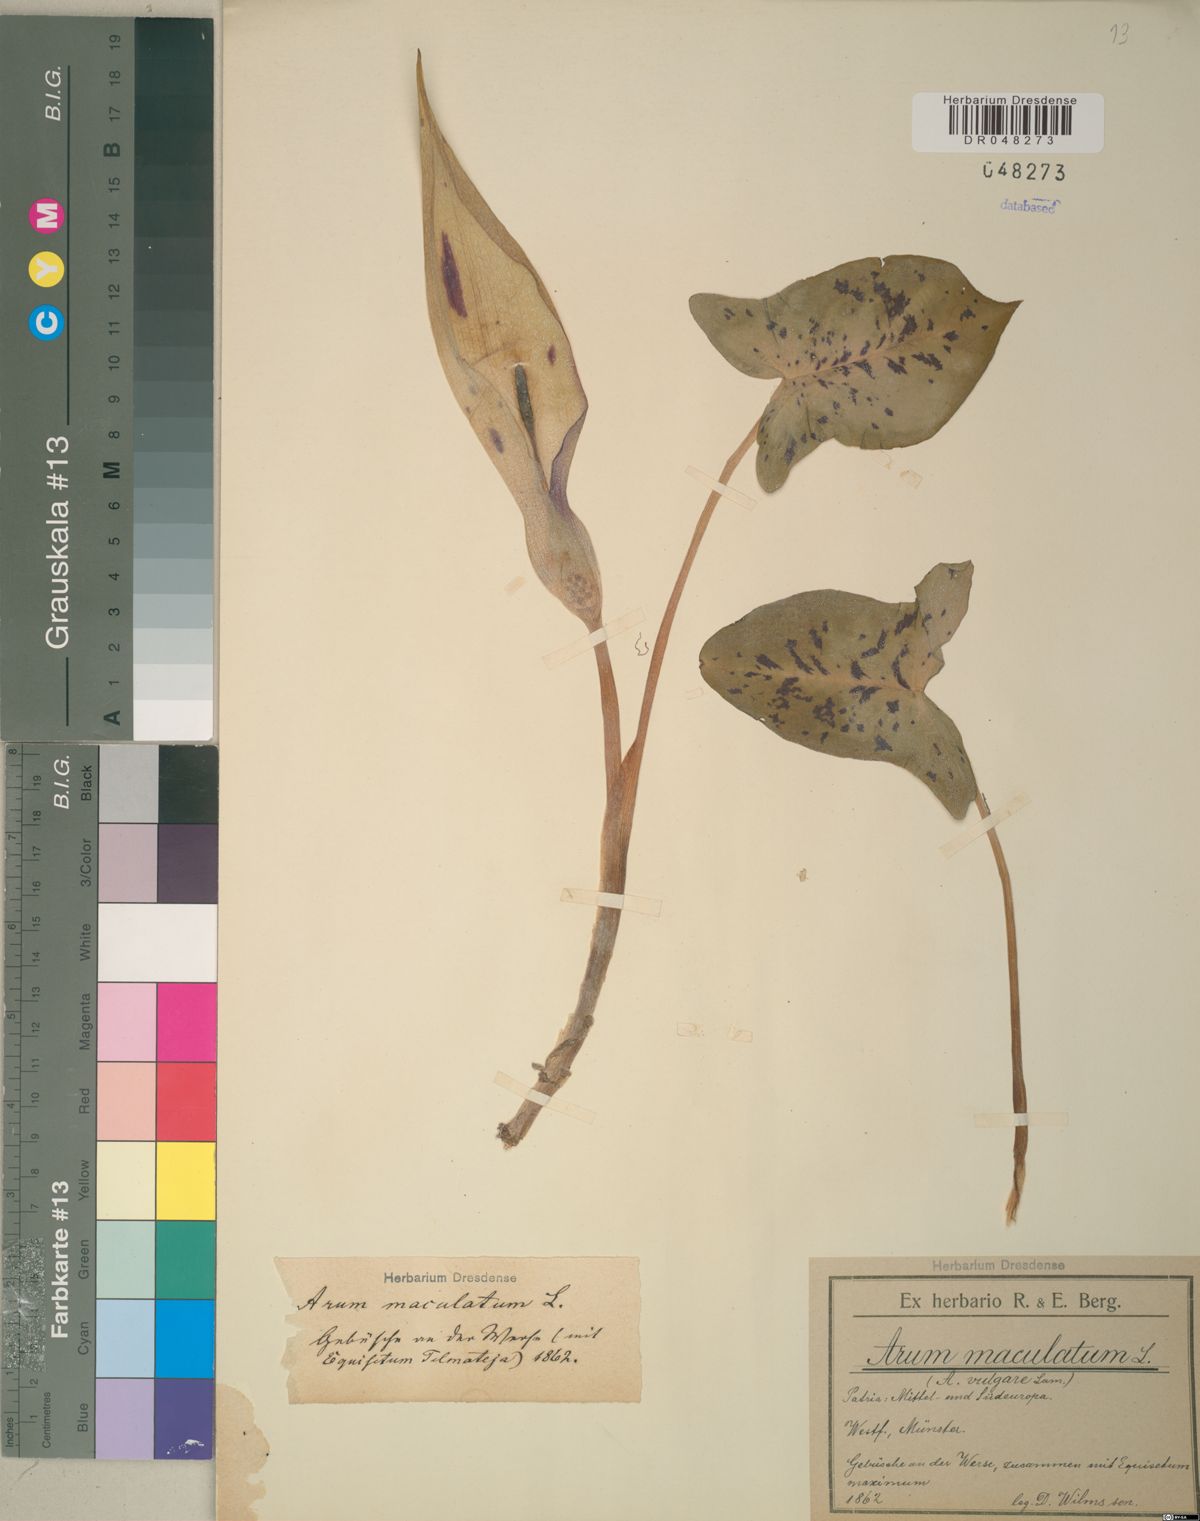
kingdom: Plantae
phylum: Tracheophyta
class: Liliopsida
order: Alismatales
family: Araceae
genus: Arum
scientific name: Arum maculatum
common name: Lords-and-ladies
